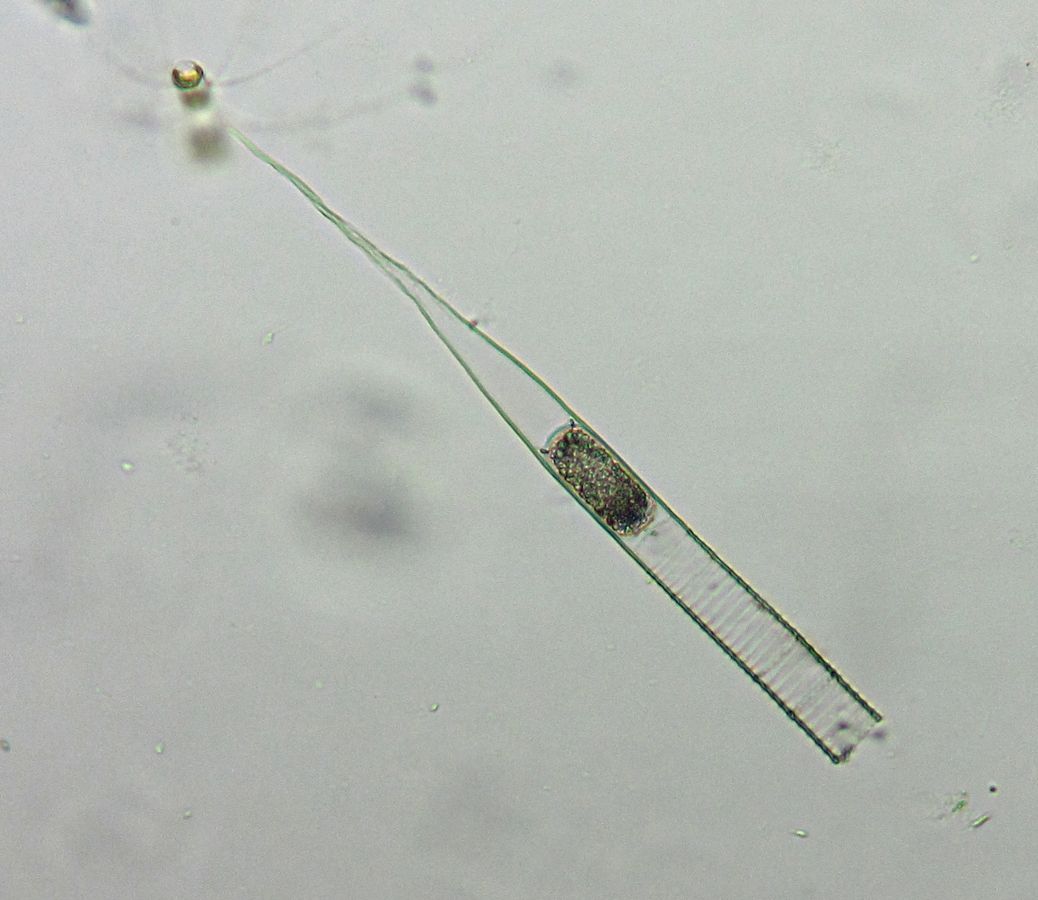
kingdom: Chromista
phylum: Ciliophora
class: Oligotrichea
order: Choreotrichida
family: Metacylididae
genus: Helicostomella
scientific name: Helicostomella subulata
